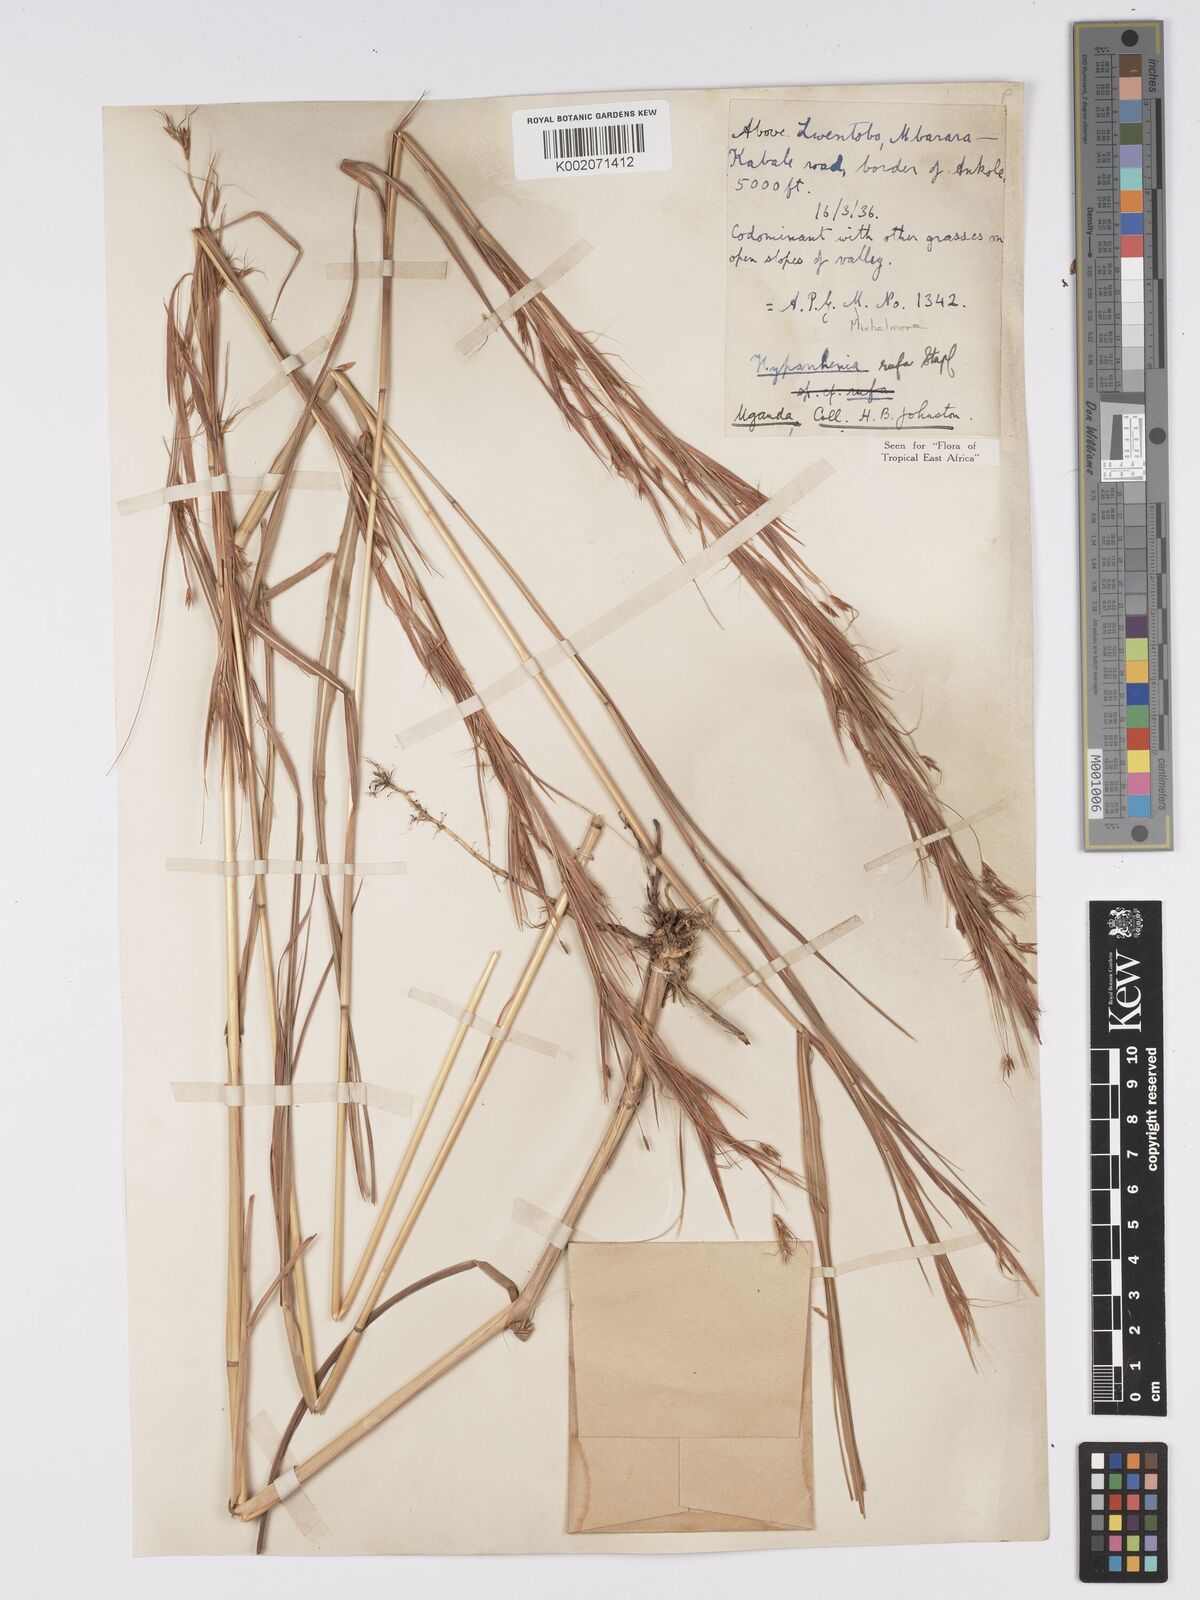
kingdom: Plantae
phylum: Tracheophyta
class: Liliopsida
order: Poales
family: Poaceae
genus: Hyparrhenia
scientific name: Hyparrhenia rufa
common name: Jaraguagrass
